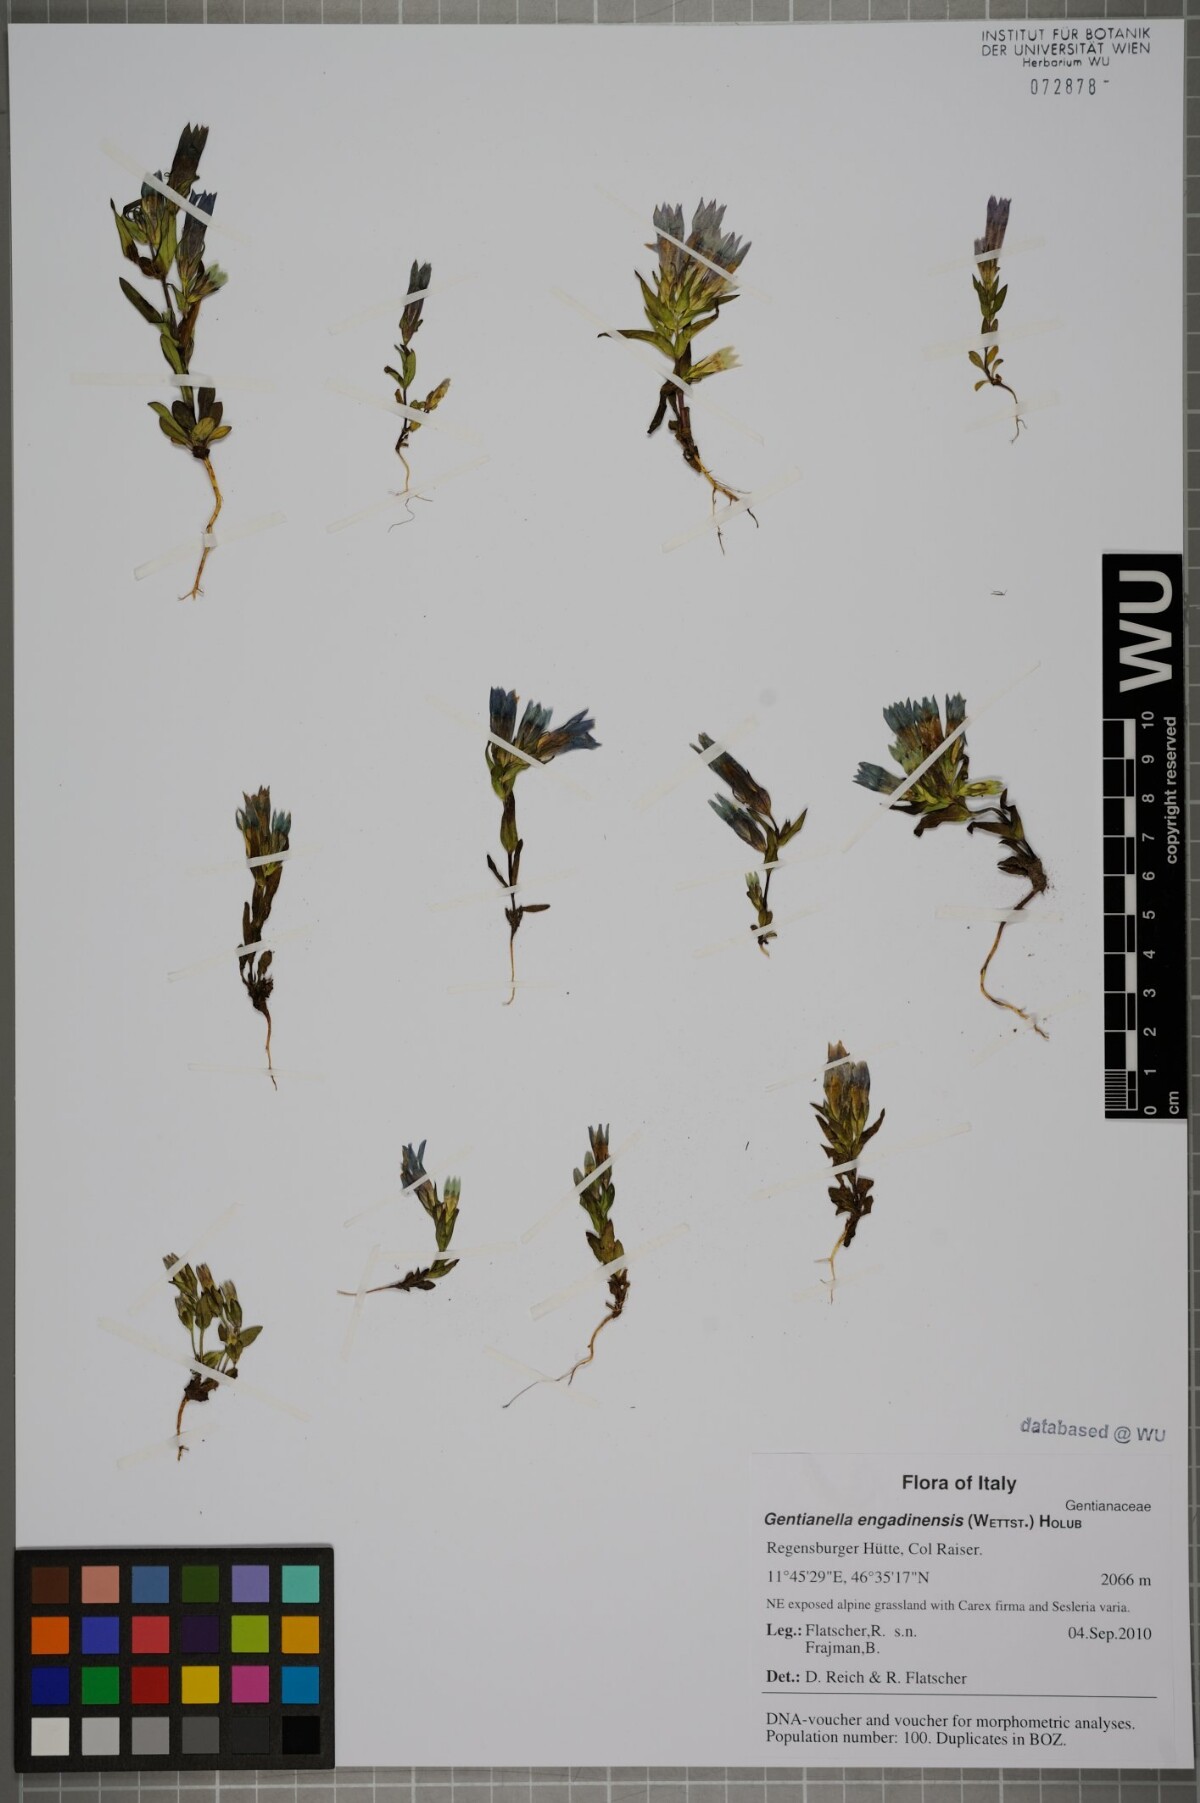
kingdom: Plantae
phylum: Tracheophyta
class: Magnoliopsida
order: Gentianales
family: Gentianaceae
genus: Gentianella
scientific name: Gentianella engadinensis
